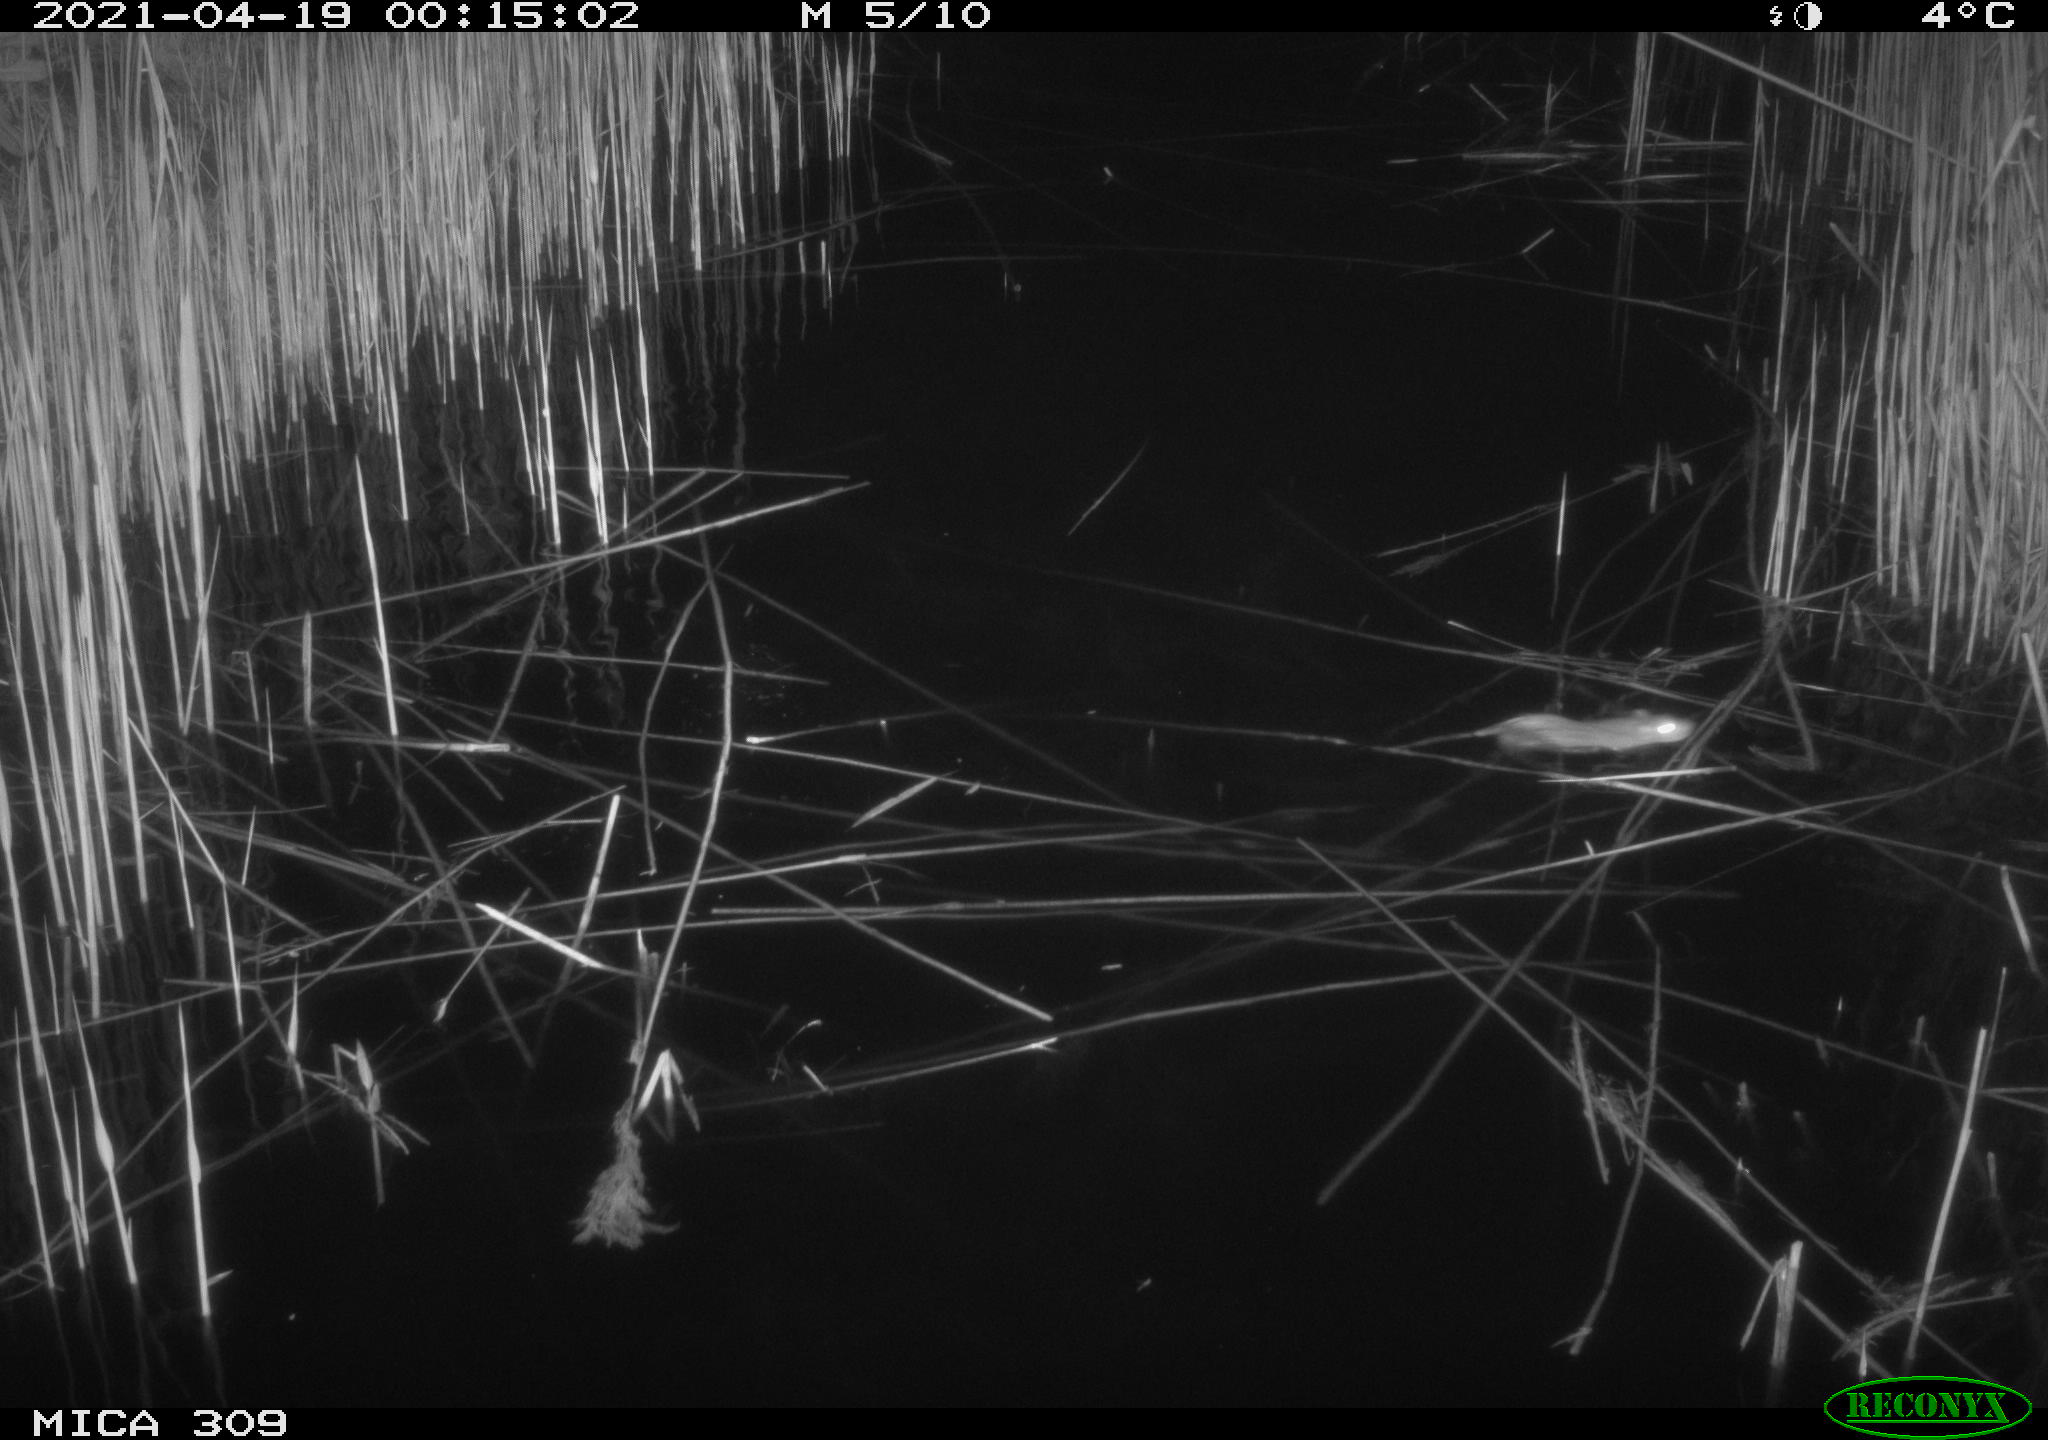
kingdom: Animalia
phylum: Chordata
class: Mammalia
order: Rodentia
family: Muridae
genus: Rattus
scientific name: Rattus norvegicus
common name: Brown rat
